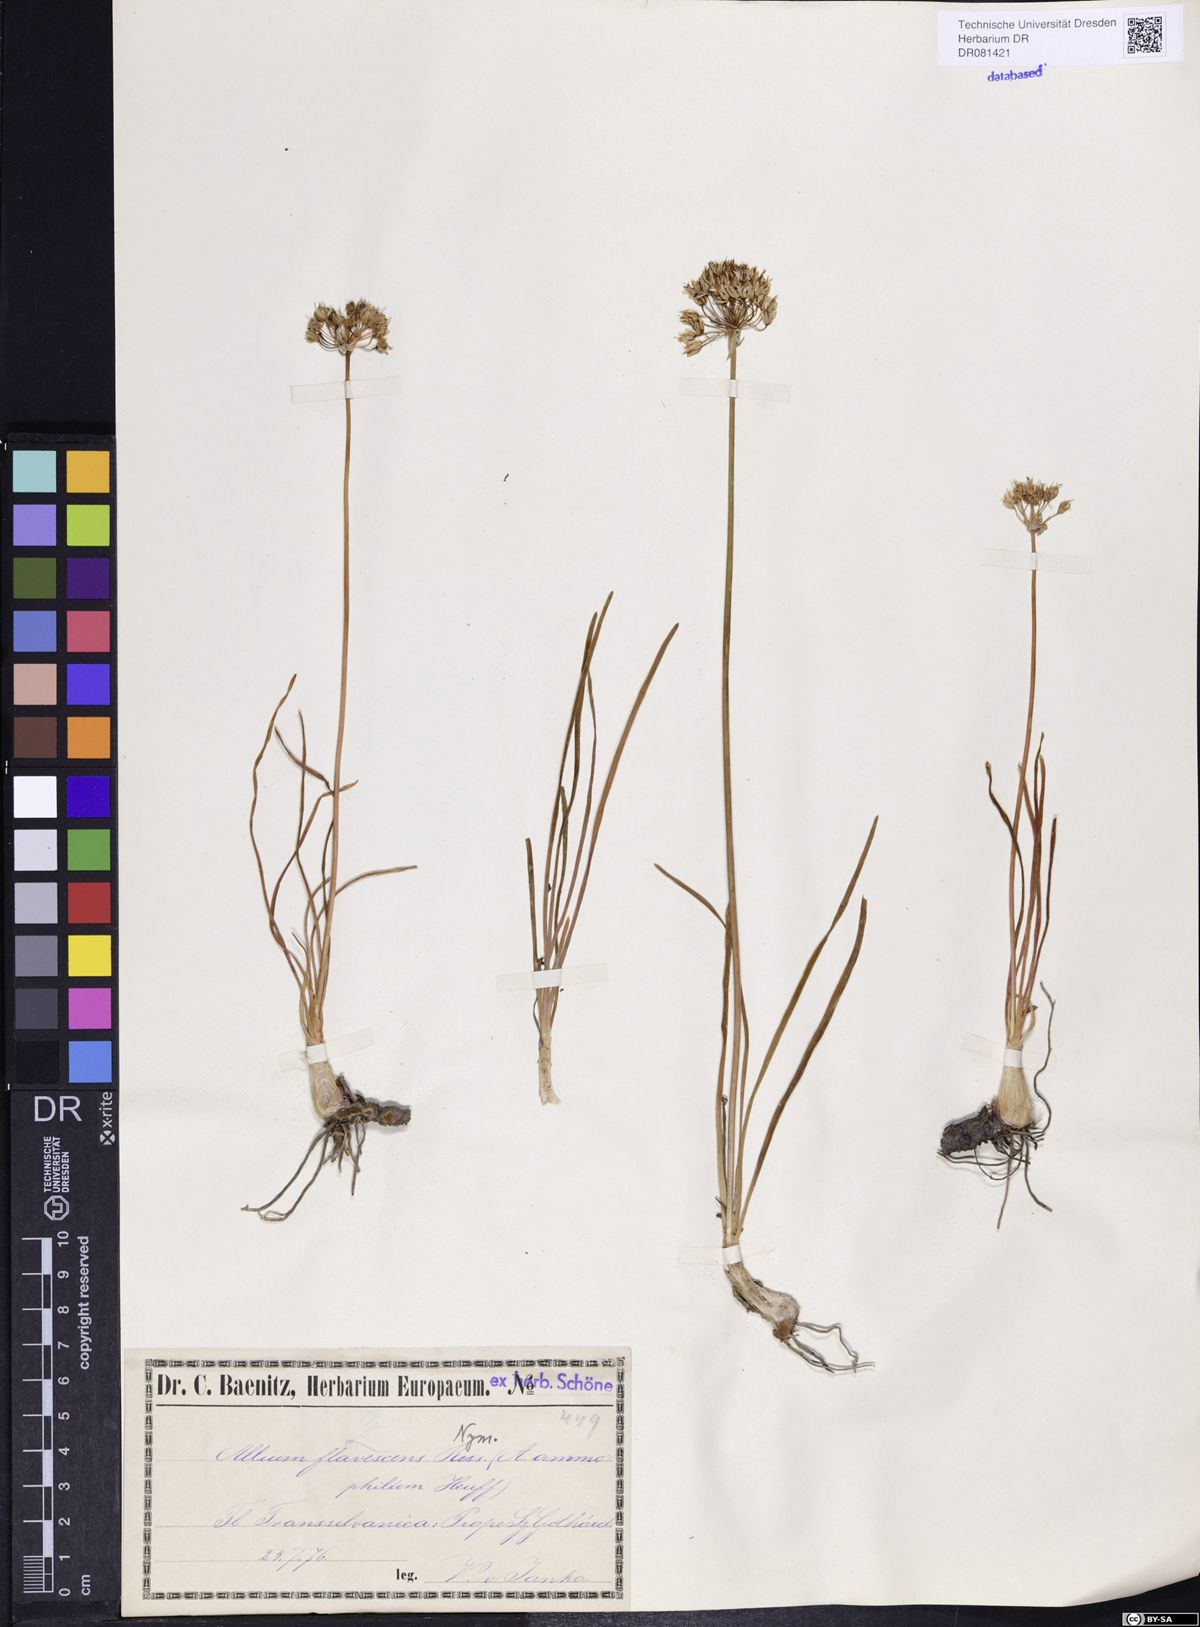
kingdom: Plantae
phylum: Tracheophyta
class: Liliopsida
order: Asparagales
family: Amaryllidaceae
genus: Allium
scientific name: Allium denudatum
